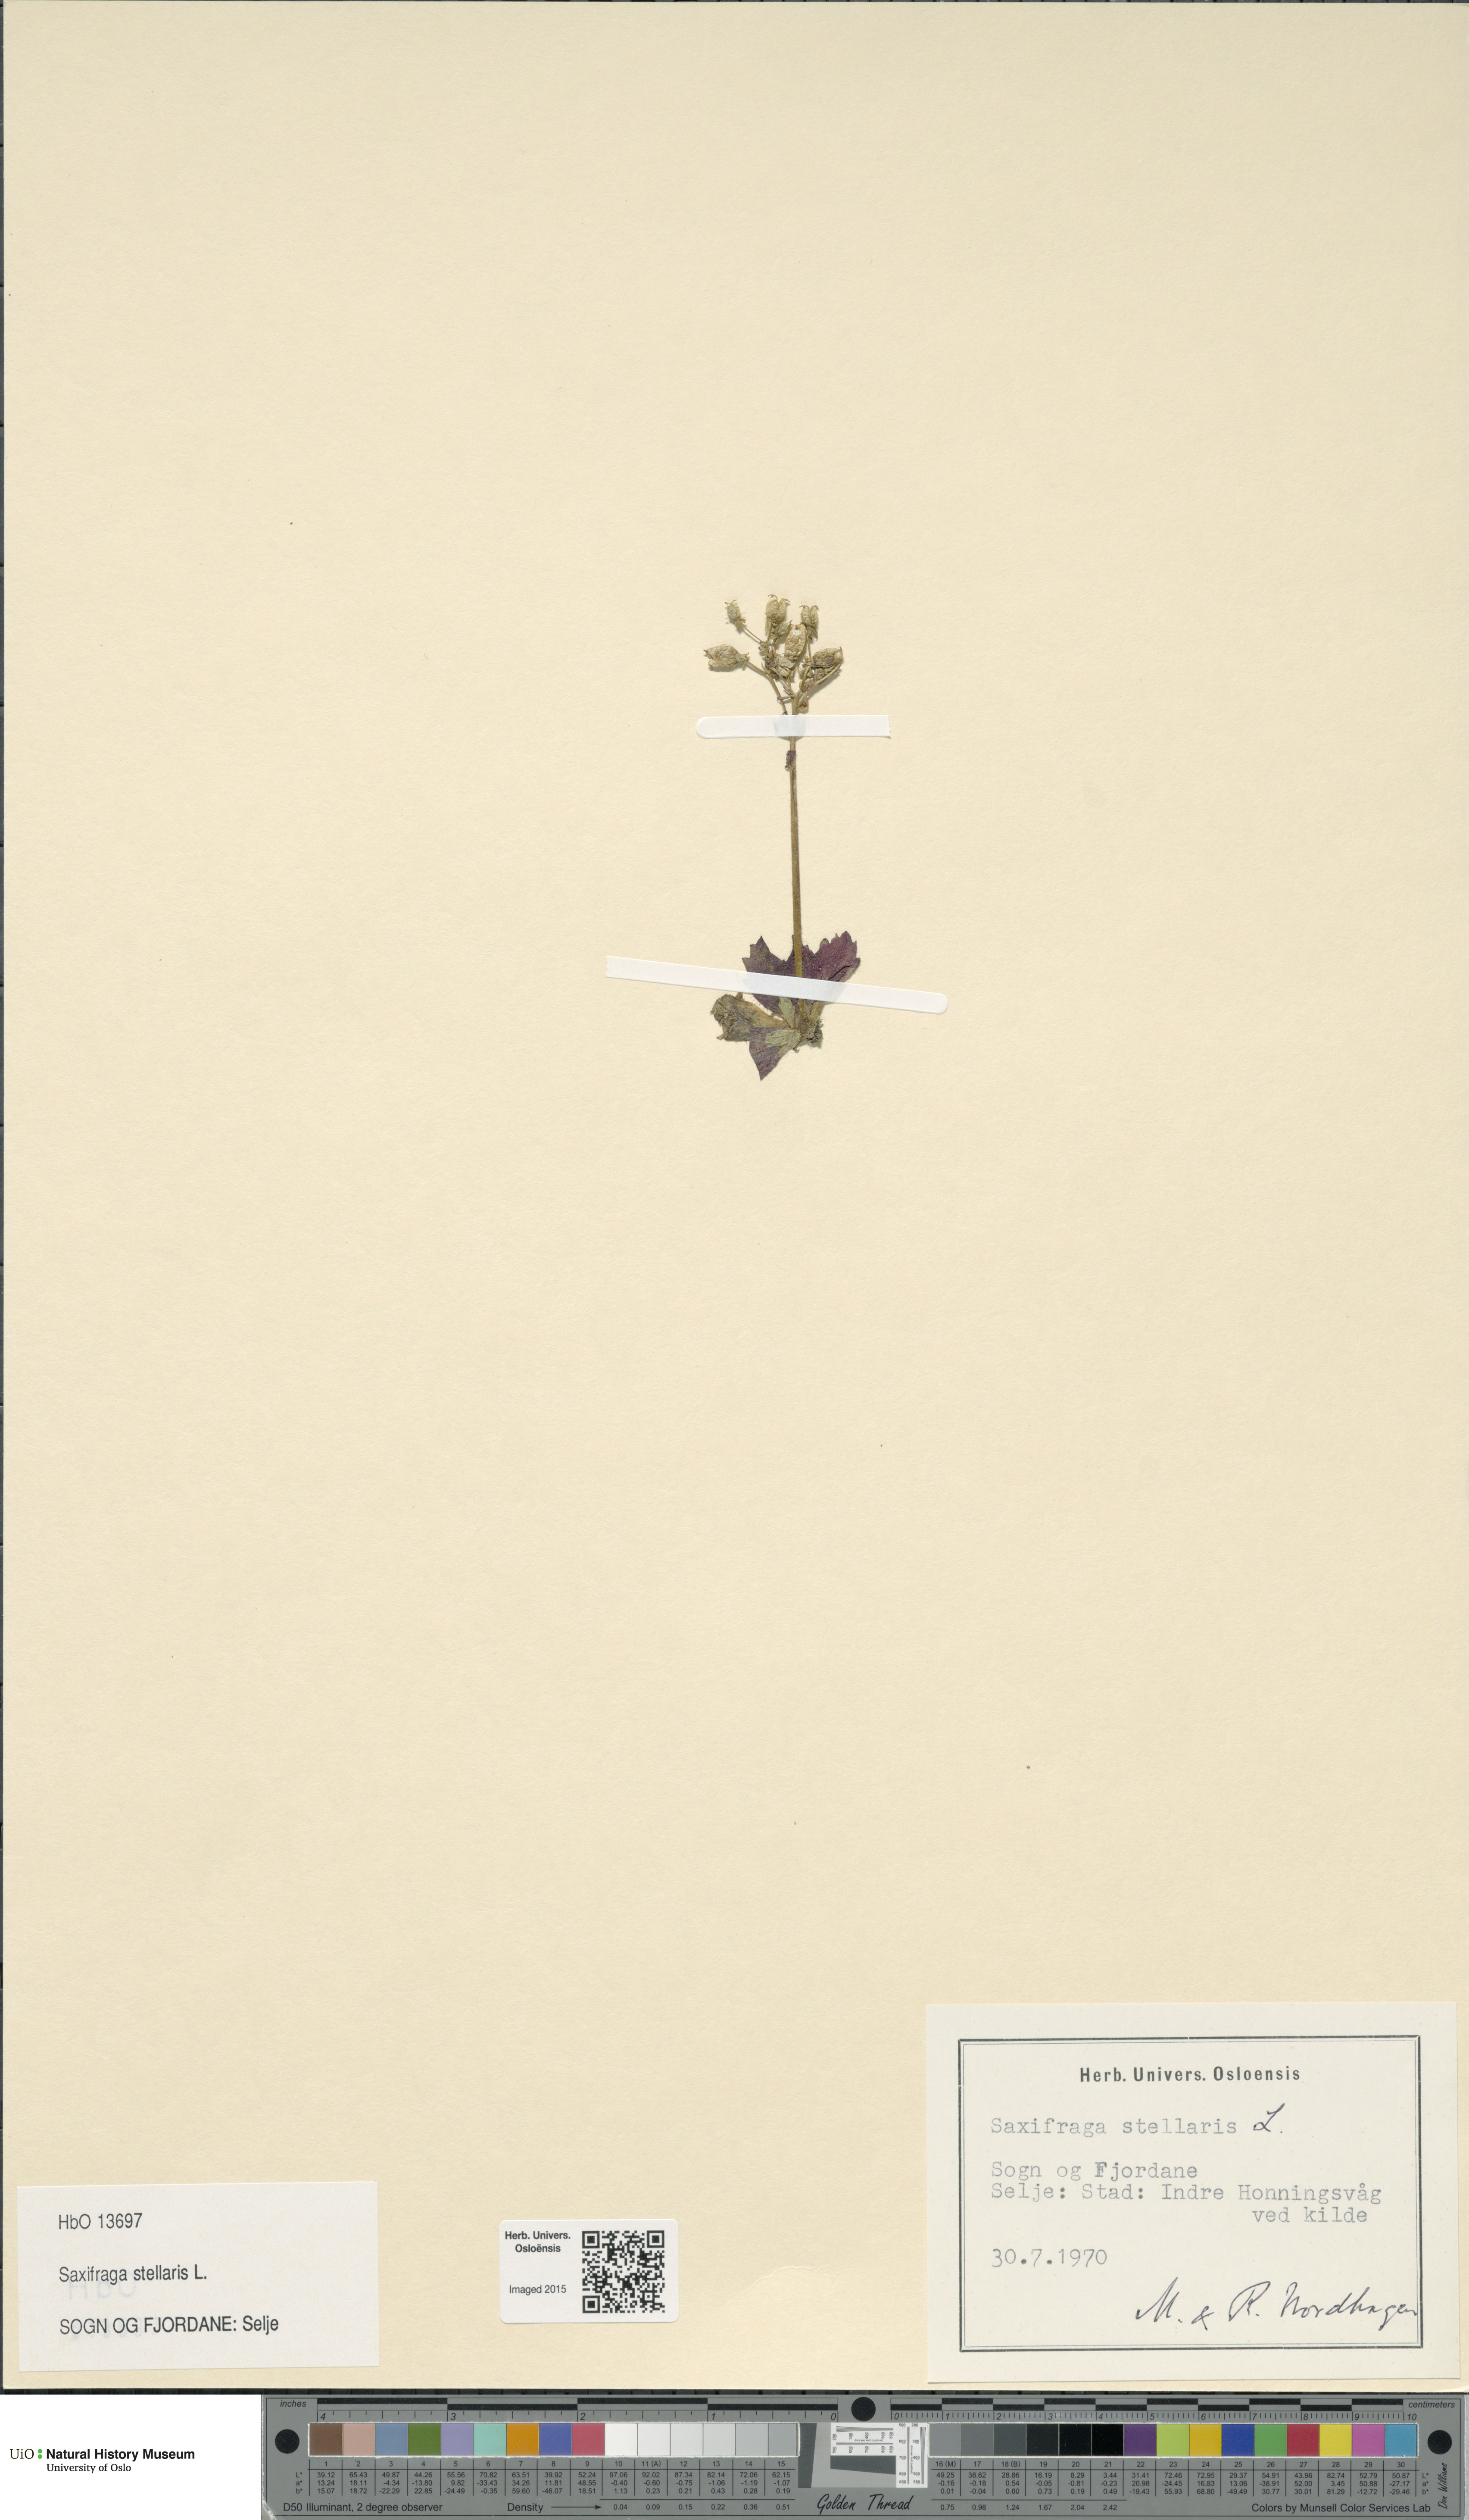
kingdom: Plantae
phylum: Tracheophyta
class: Magnoliopsida
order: Saxifragales
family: Saxifragaceae
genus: Micranthes
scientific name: Micranthes stellaris
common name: Starry saxifrage
